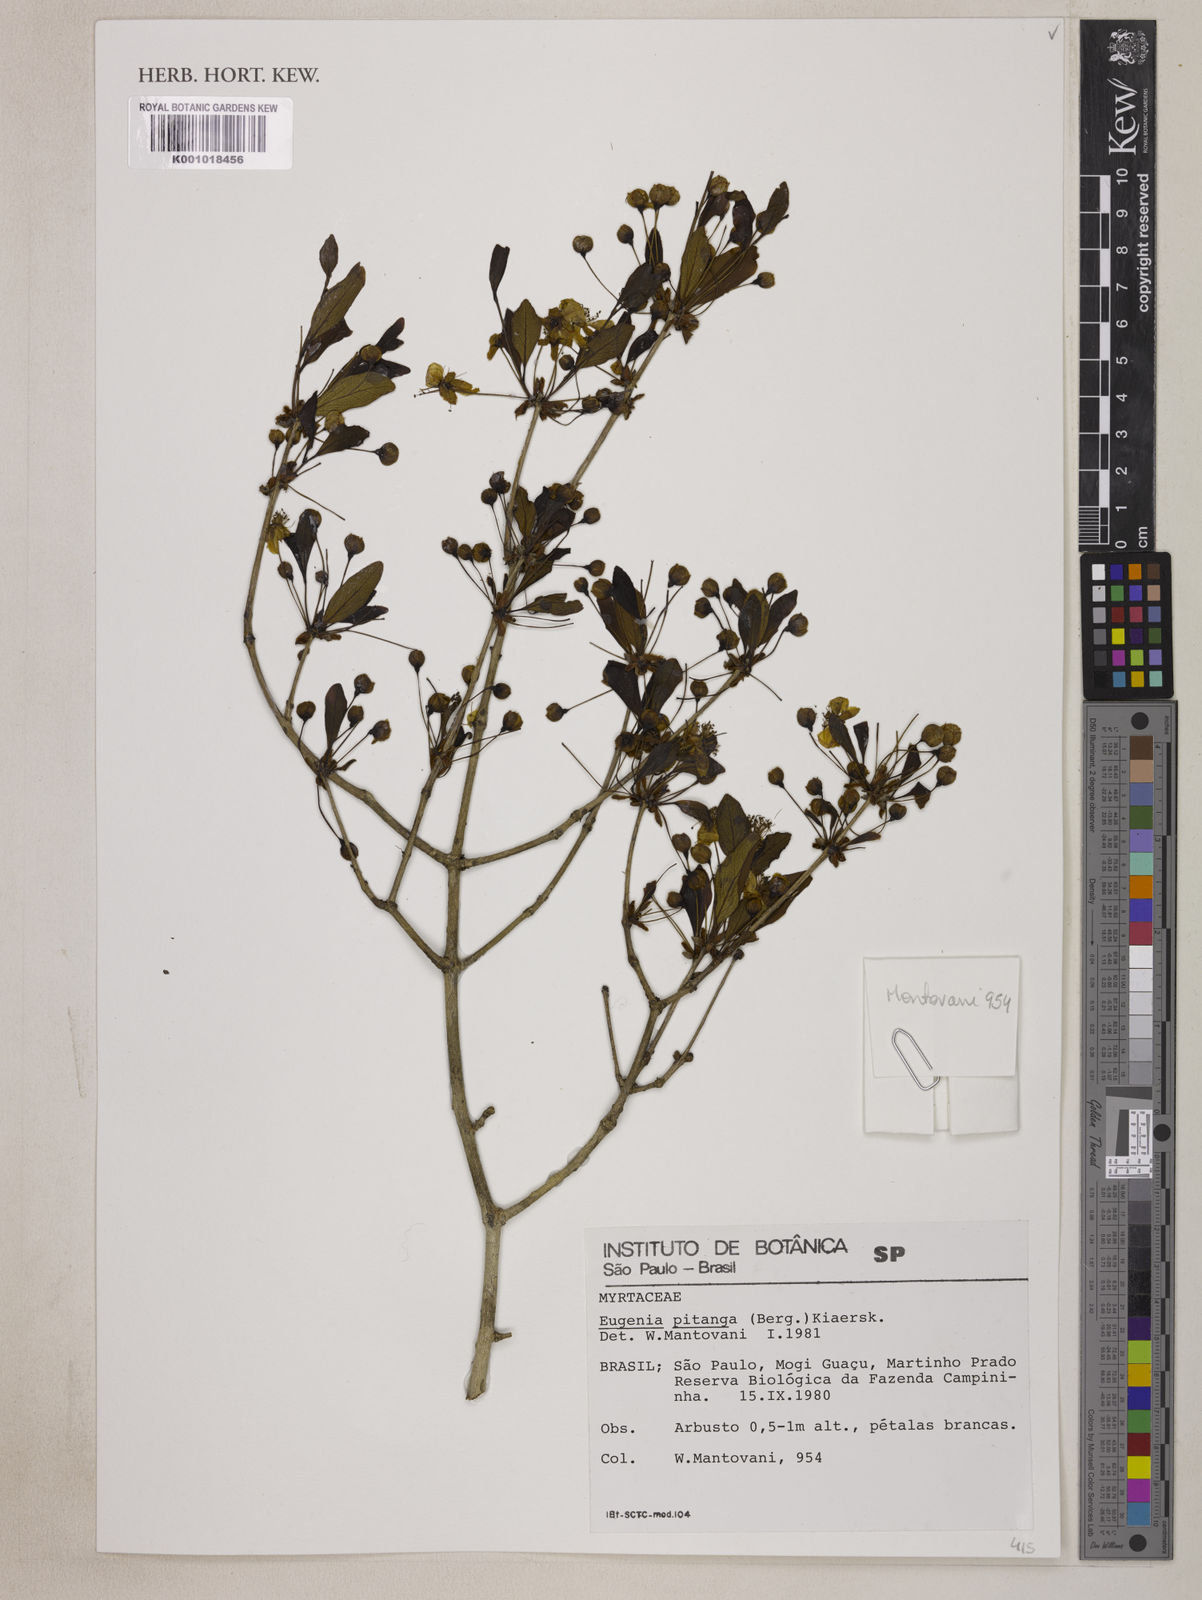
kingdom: Plantae
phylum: Tracheophyta
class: Magnoliopsida
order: Myrtales
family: Myrtaceae
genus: Eugenia
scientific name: Eugenia
